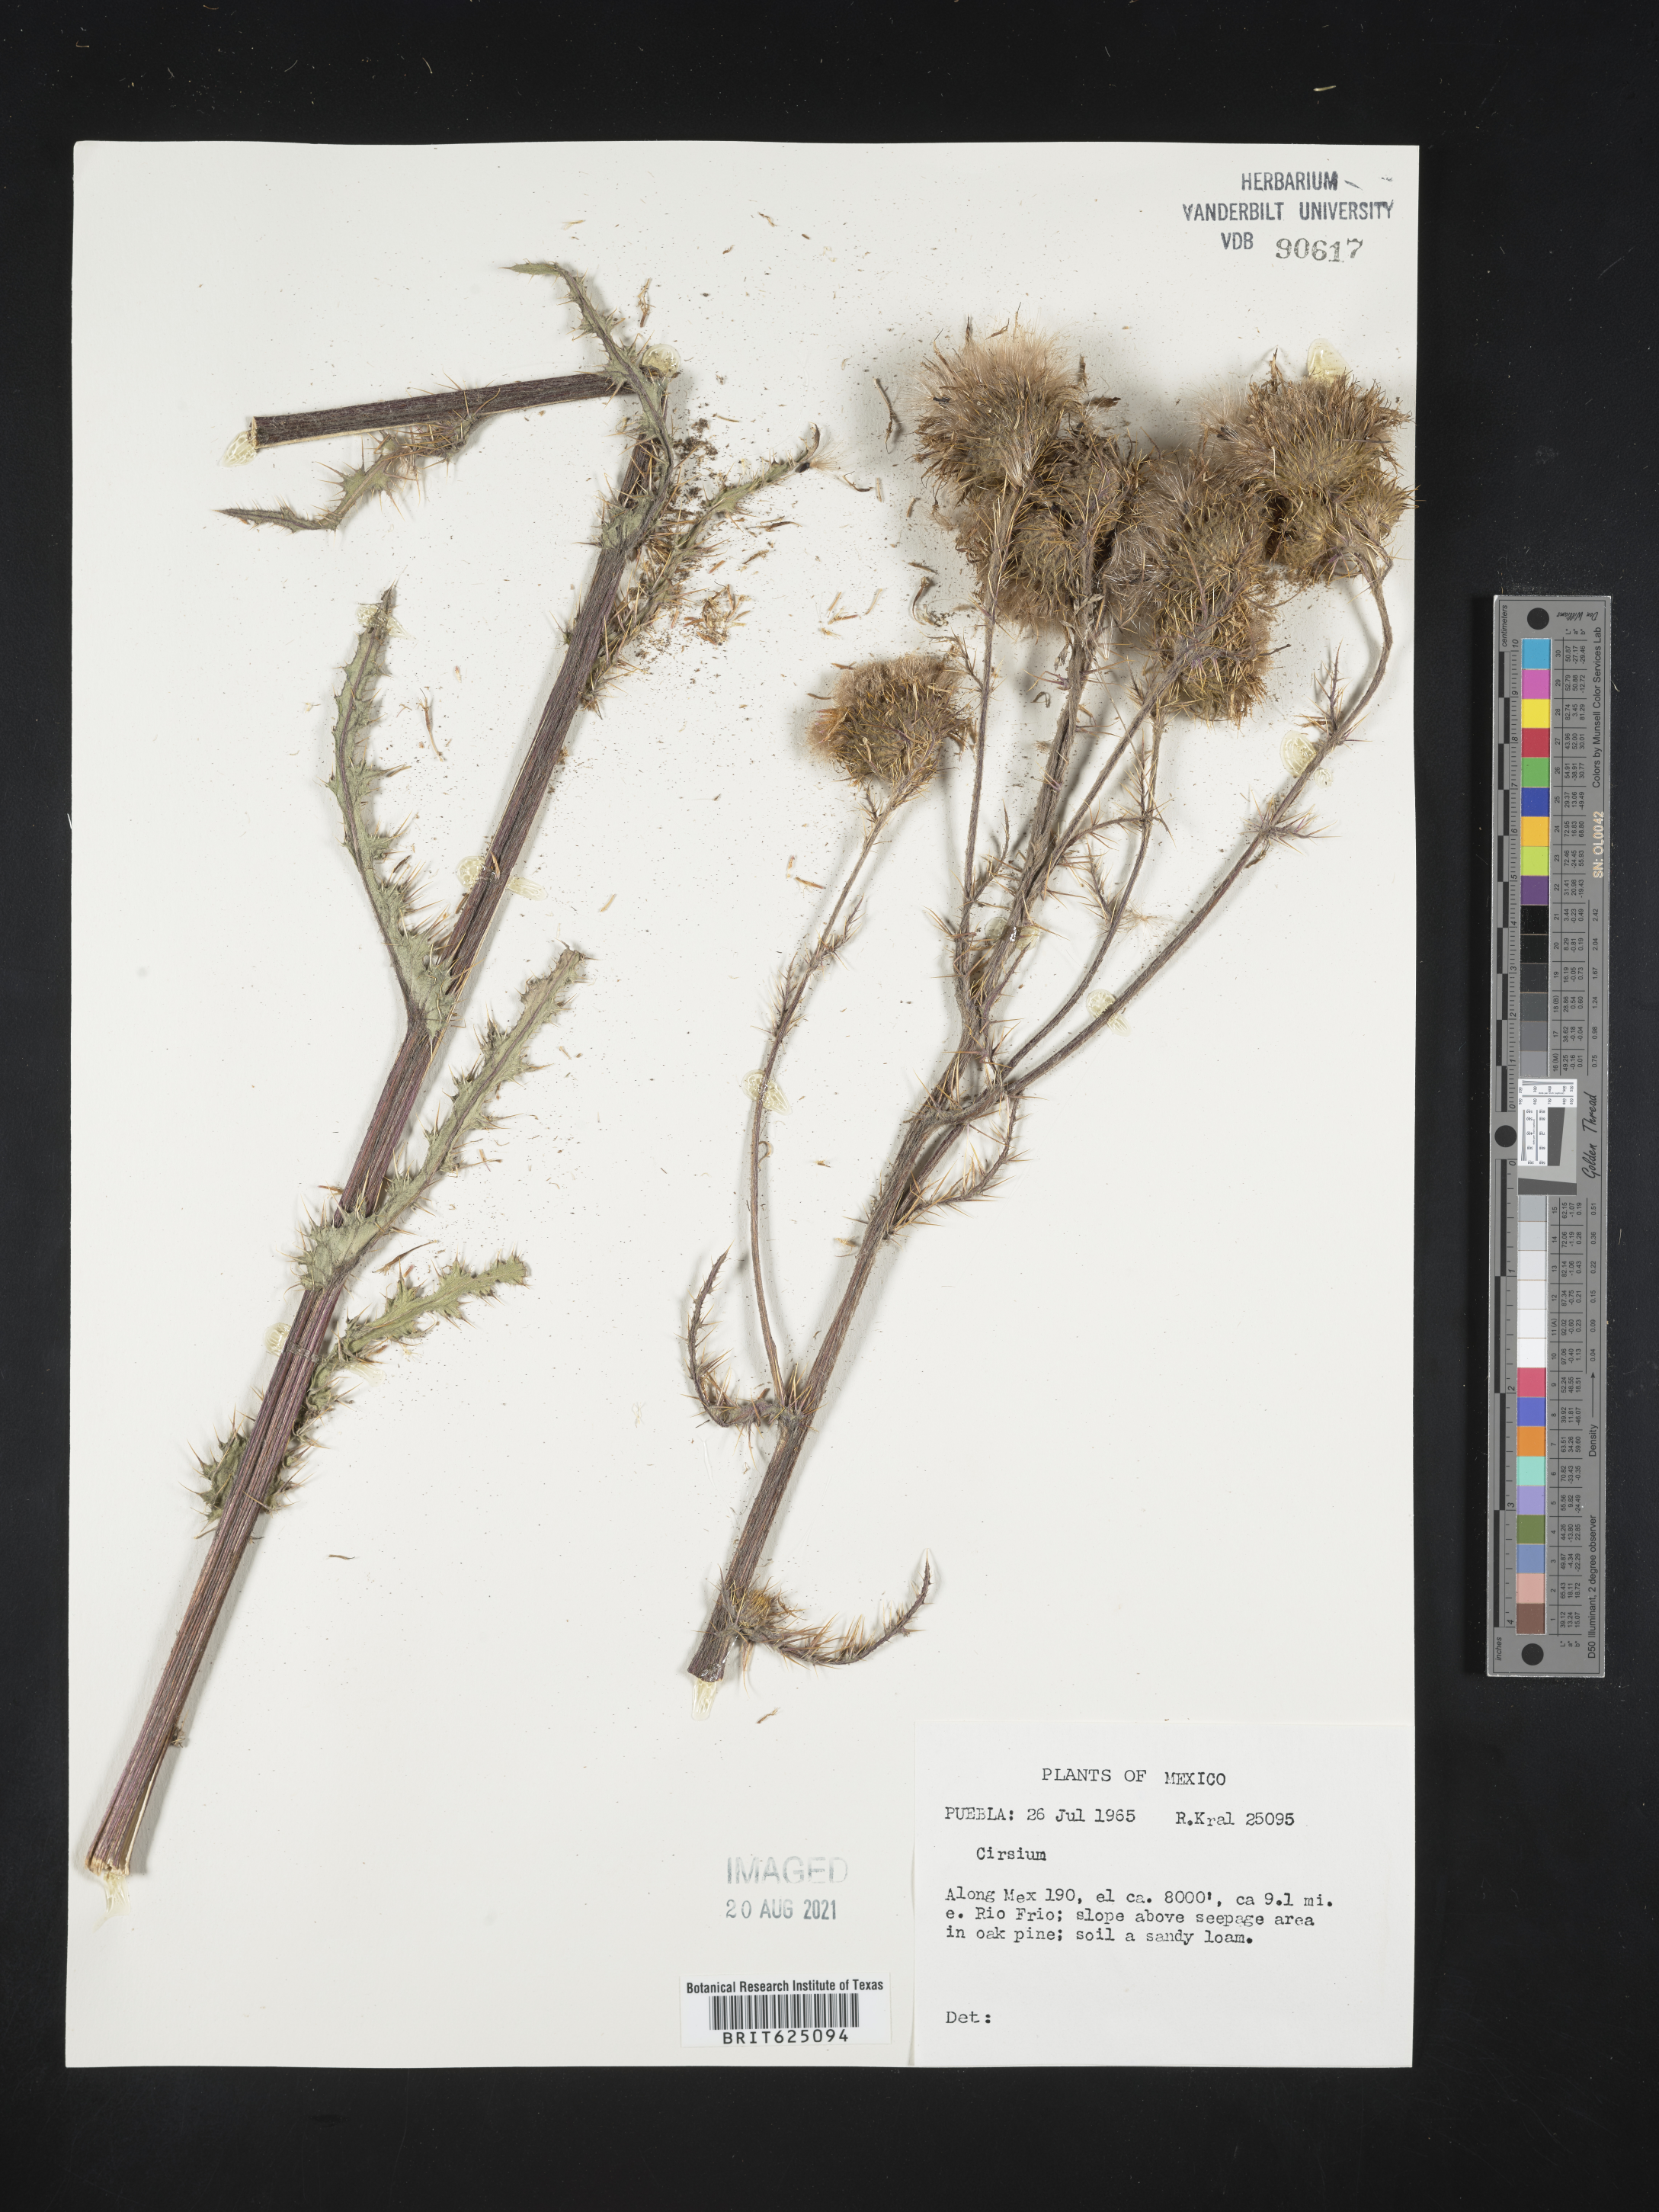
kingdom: Plantae
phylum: Tracheophyta
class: Magnoliopsida
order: Asterales
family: Asteraceae
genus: Cirsium
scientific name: Cirsium
